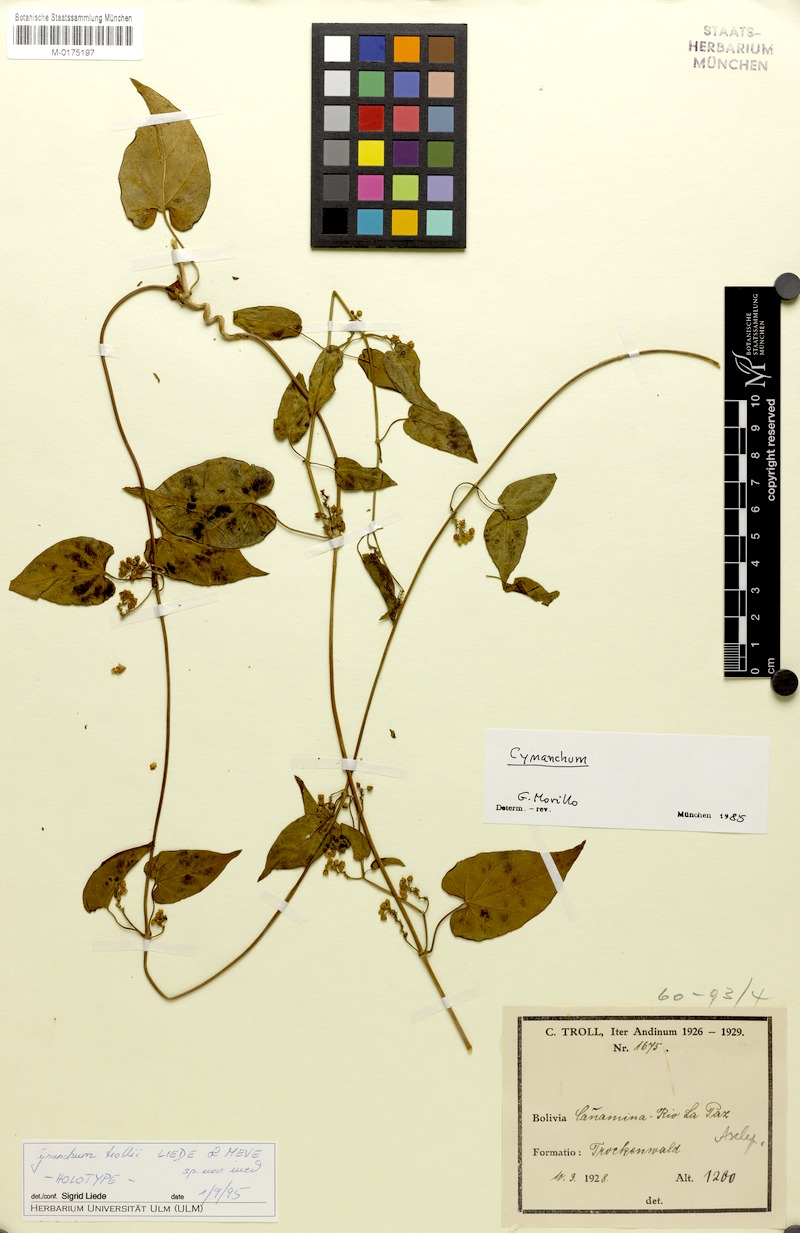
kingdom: Plantae
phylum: Tracheophyta
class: Magnoliopsida
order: Gentianales
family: Apocynaceae
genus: Cynanchum
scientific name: Cynanchum trollii
